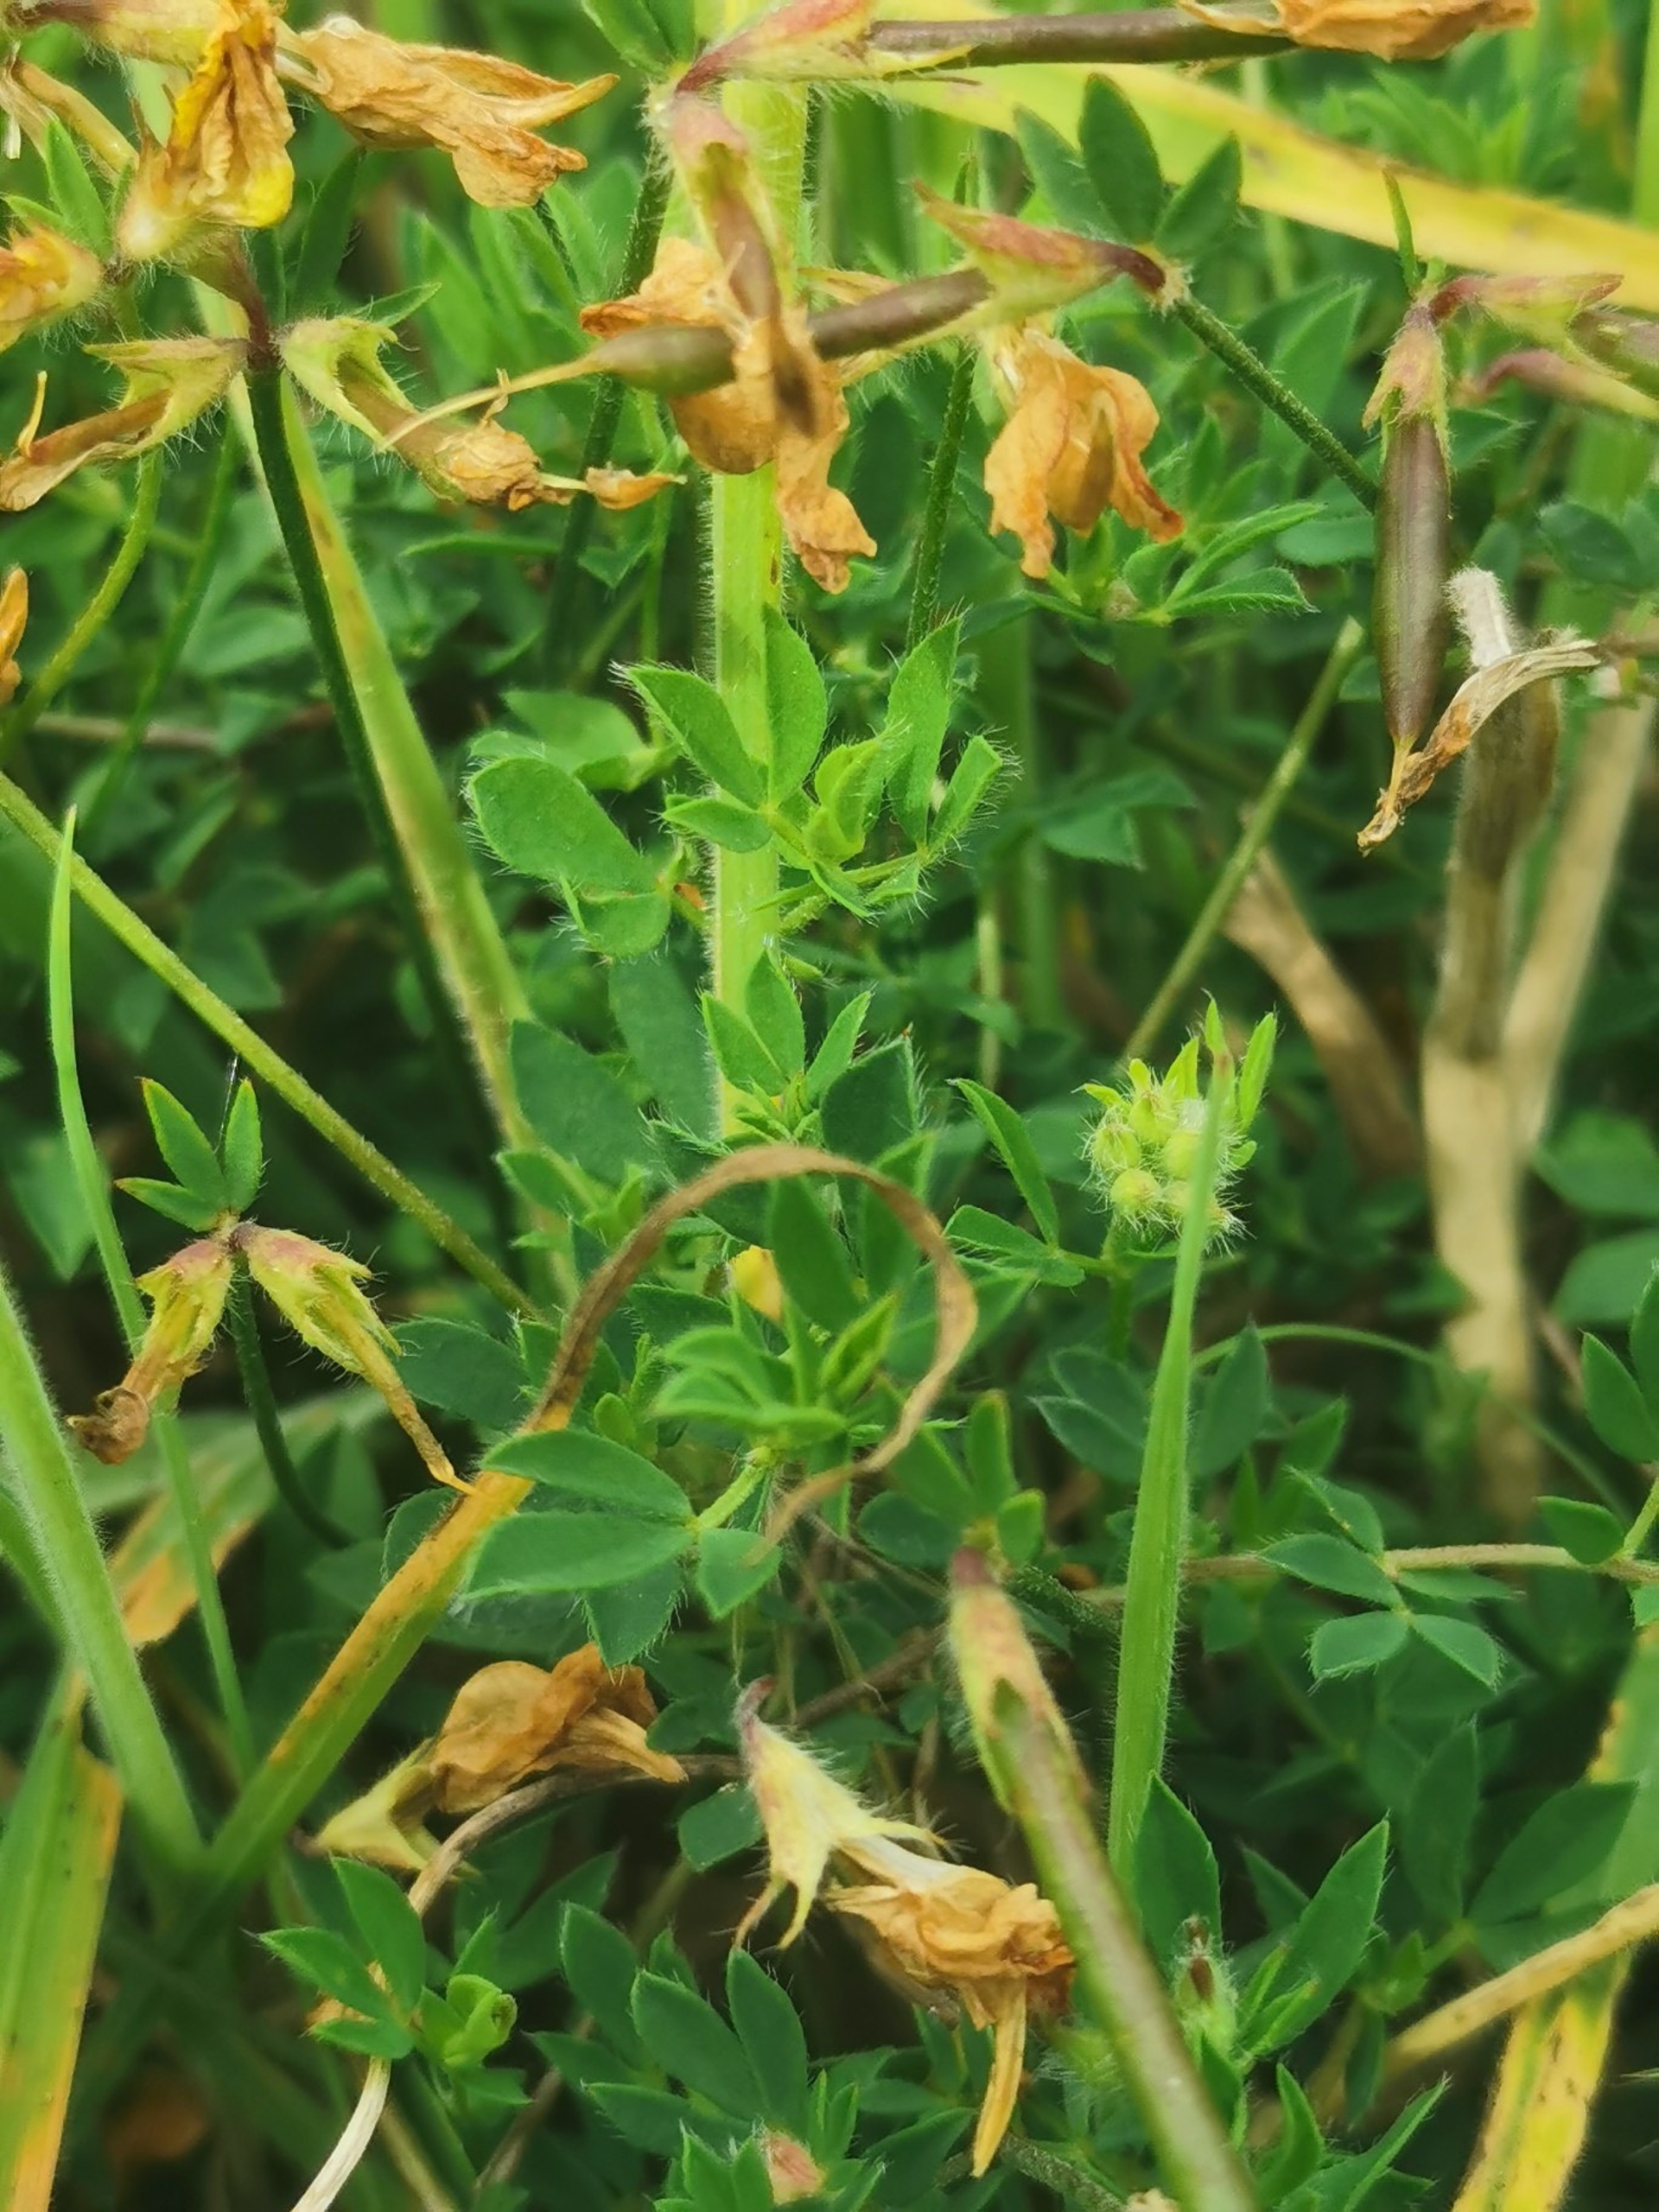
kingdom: Plantae
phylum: Tracheophyta
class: Magnoliopsida
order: Fabales
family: Fabaceae
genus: Lotus
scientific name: Lotus corniculatus
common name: Almindelig kællingetand
